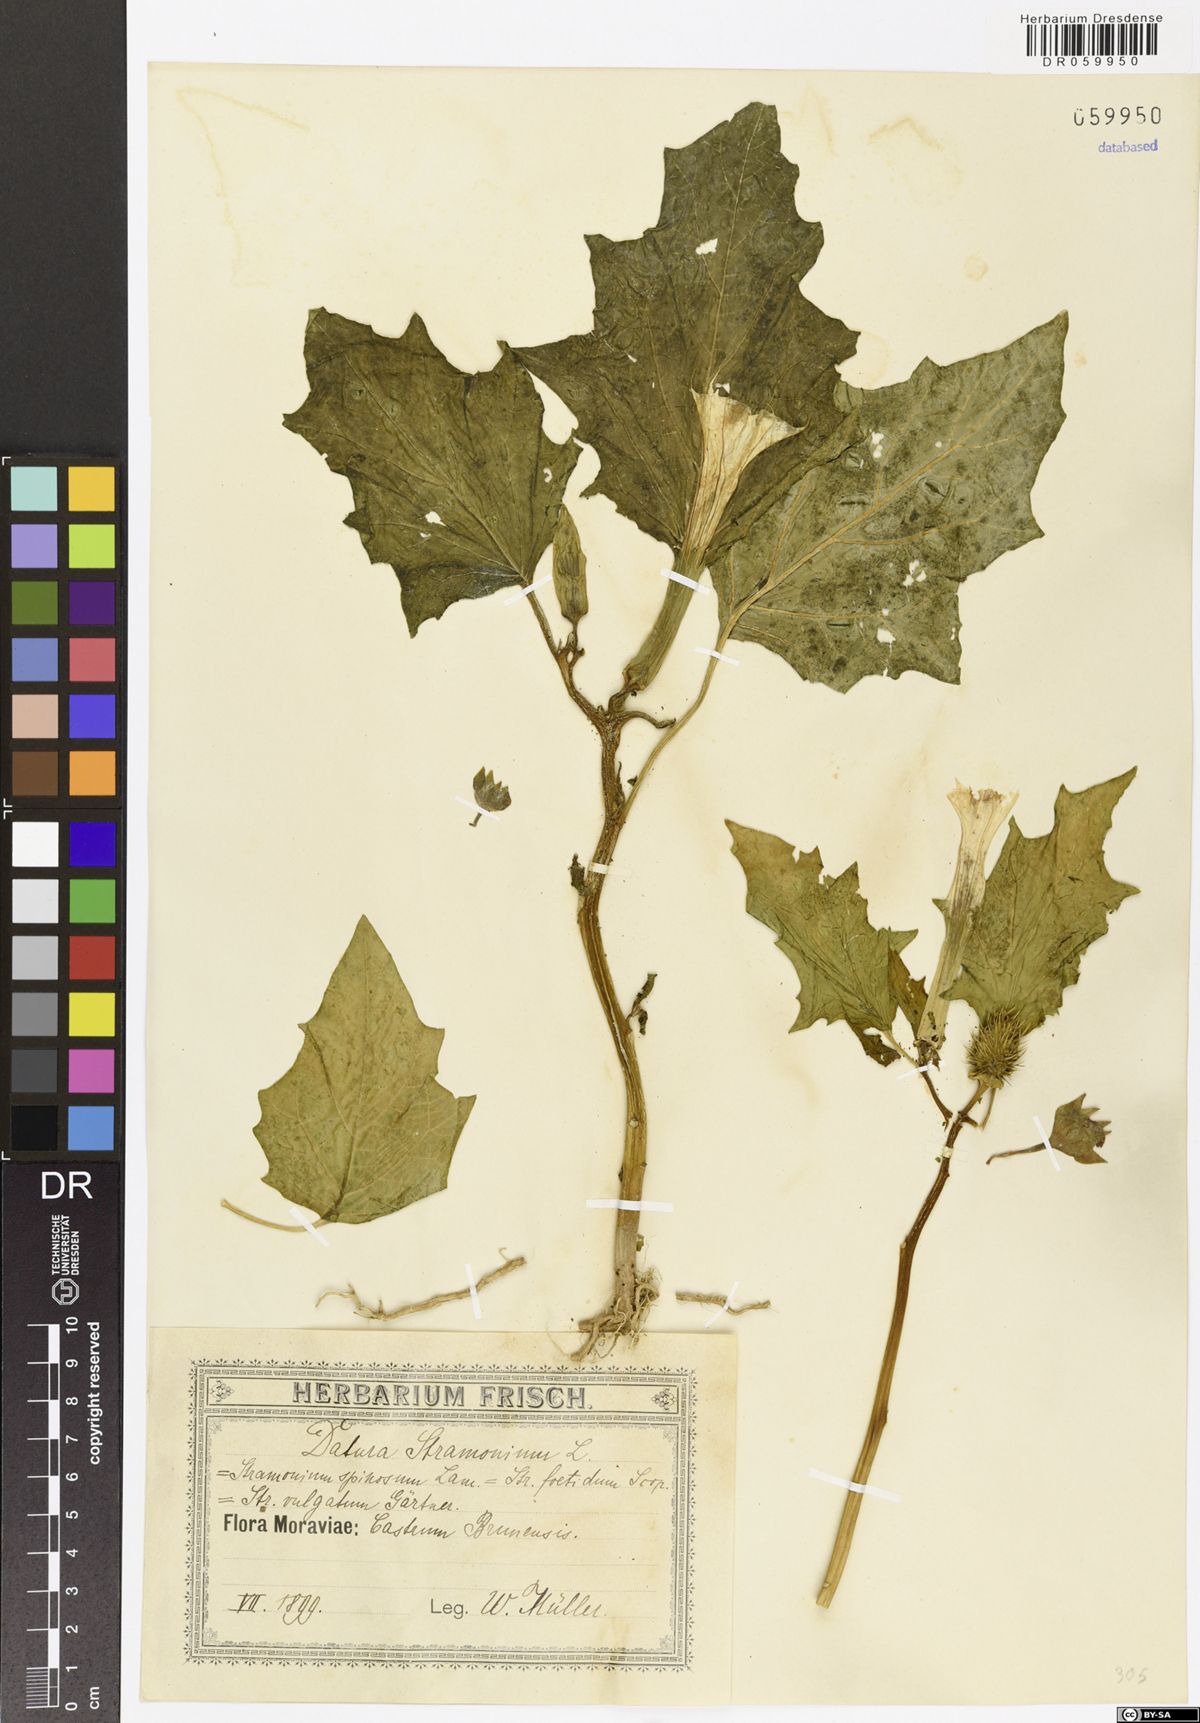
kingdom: Plantae
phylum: Tracheophyta
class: Magnoliopsida
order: Solanales
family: Solanaceae
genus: Datura
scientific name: Datura stramonium
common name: Thorn-apple
